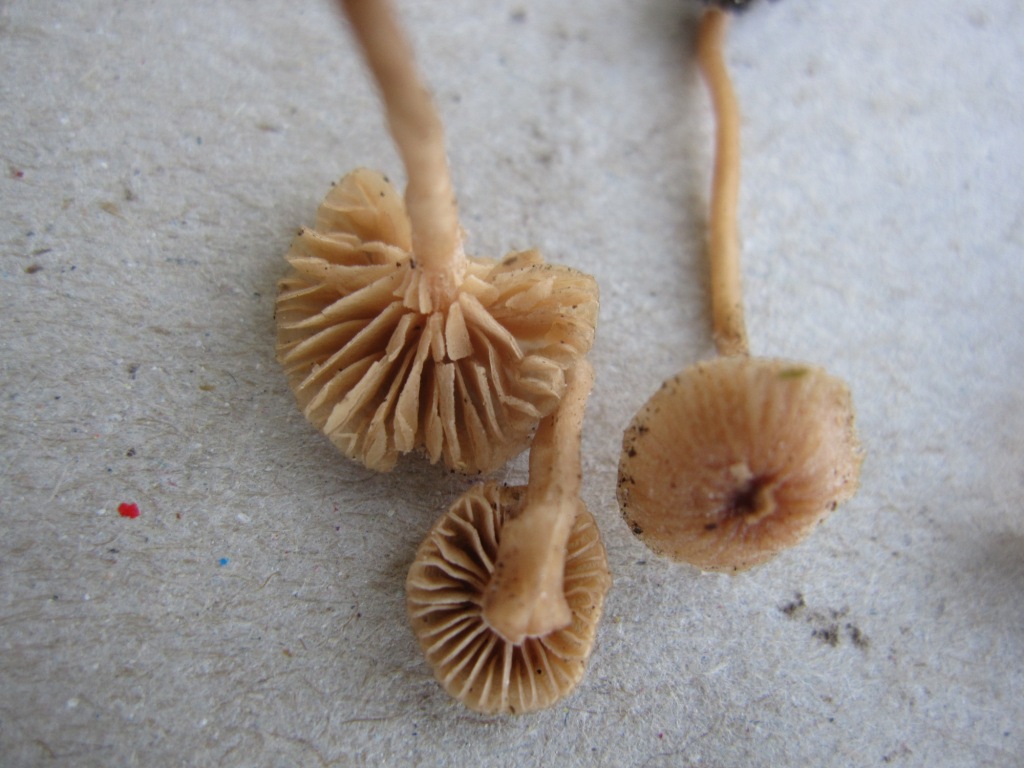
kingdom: Fungi
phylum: Basidiomycota
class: Agaricomycetes
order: Agaricales
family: Tubariaceae
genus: Tubaria
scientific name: Tubaria
